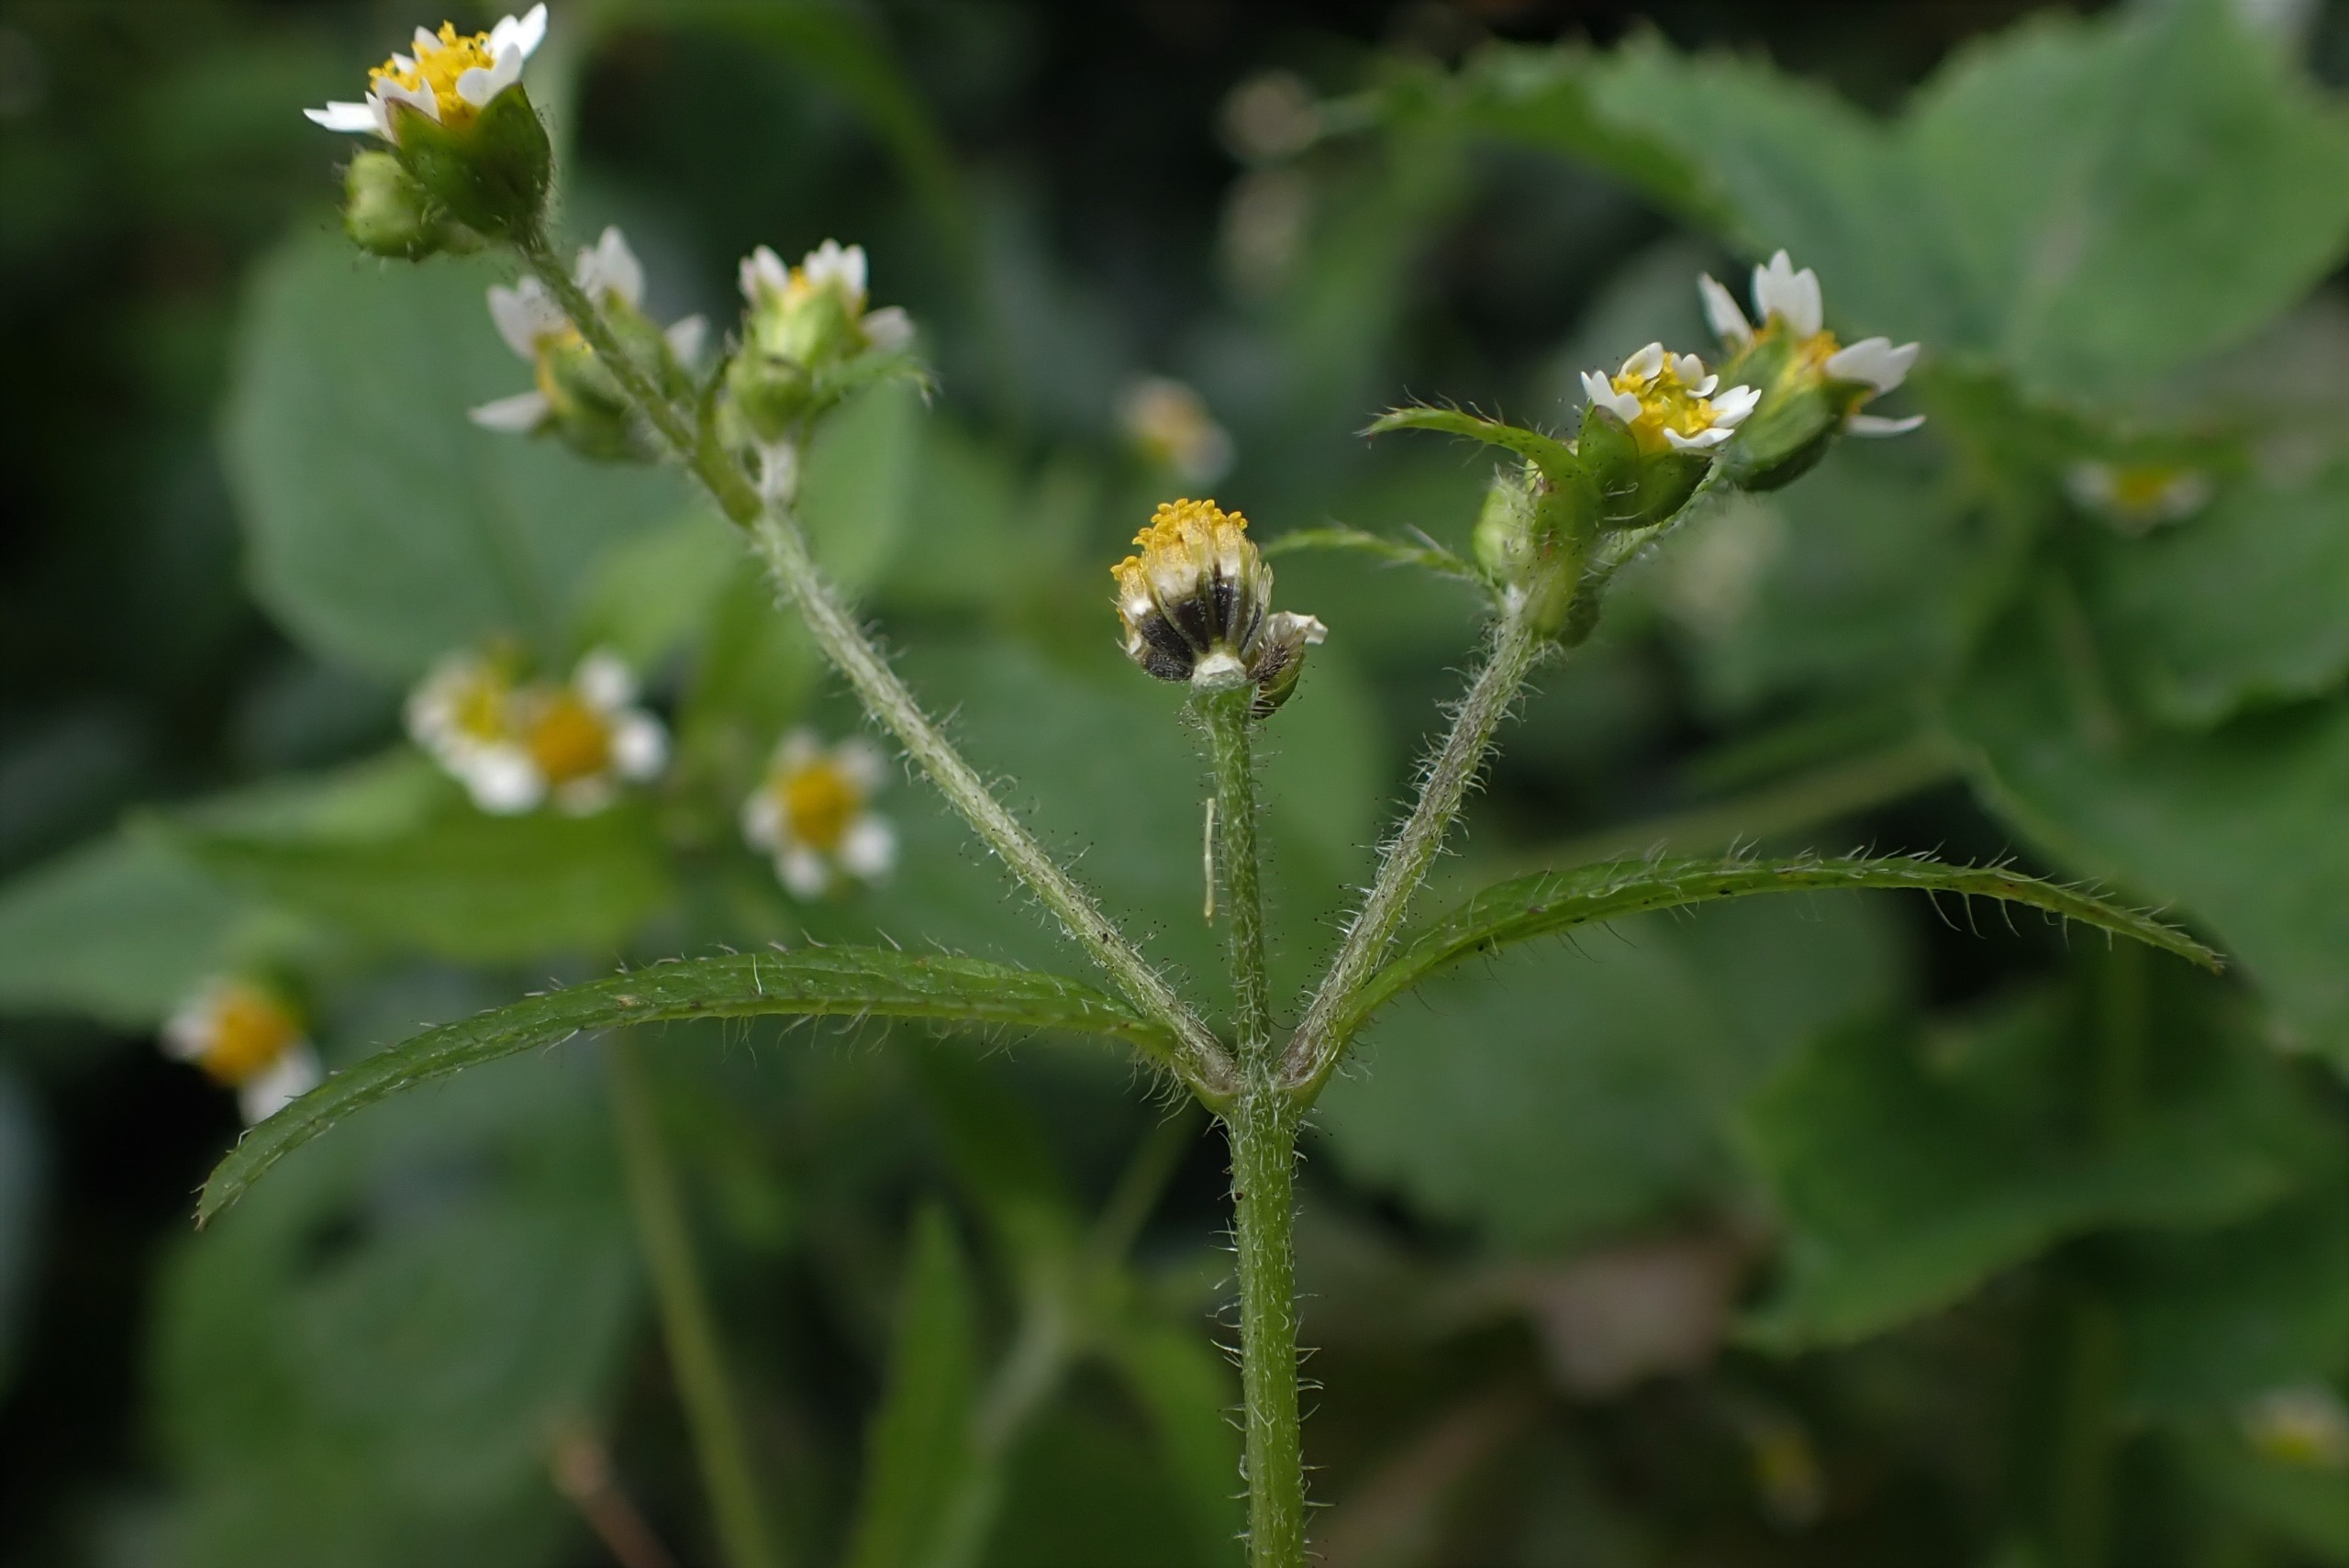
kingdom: Plantae
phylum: Tracheophyta
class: Magnoliopsida
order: Asterales
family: Asteraceae
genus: Galinsoga
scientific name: Galinsoga quadriradiata
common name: Kirtel-kortstråle
